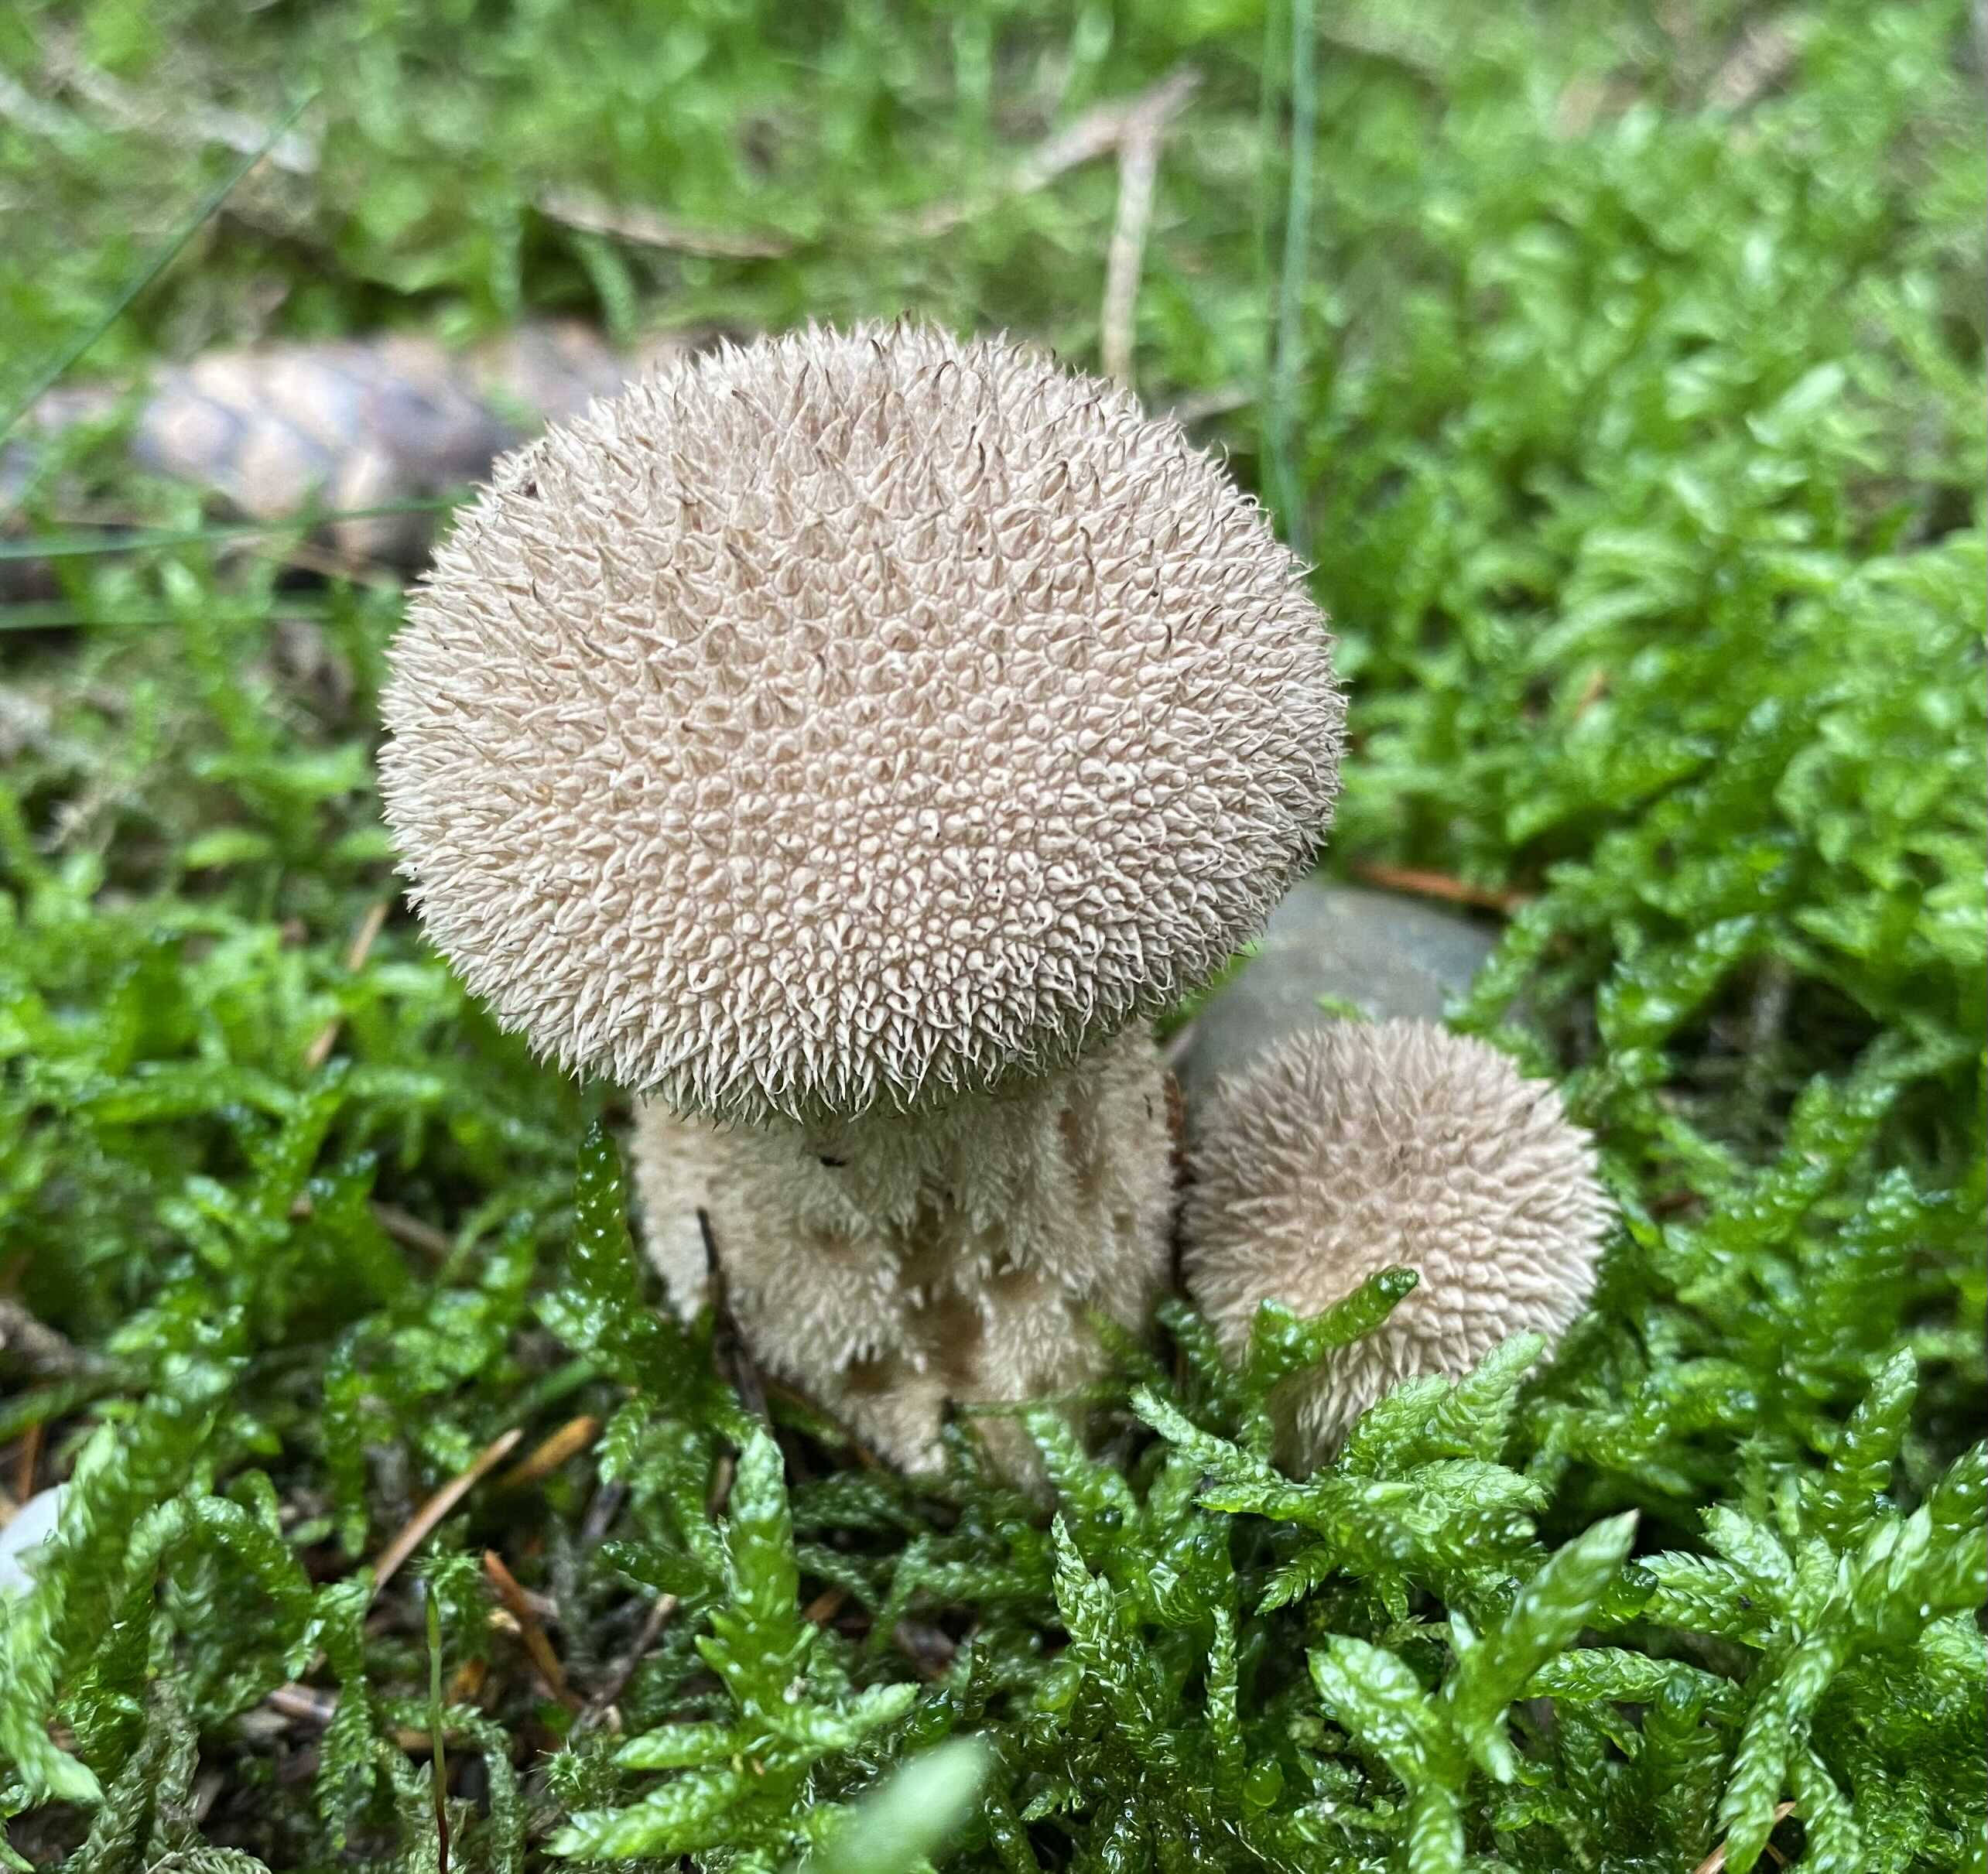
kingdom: Fungi
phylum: Basidiomycota
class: Agaricomycetes
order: Agaricales
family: Lycoperdaceae
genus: Lycoperdon
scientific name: Lycoperdon nigrescens
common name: sortagtig støvbold
